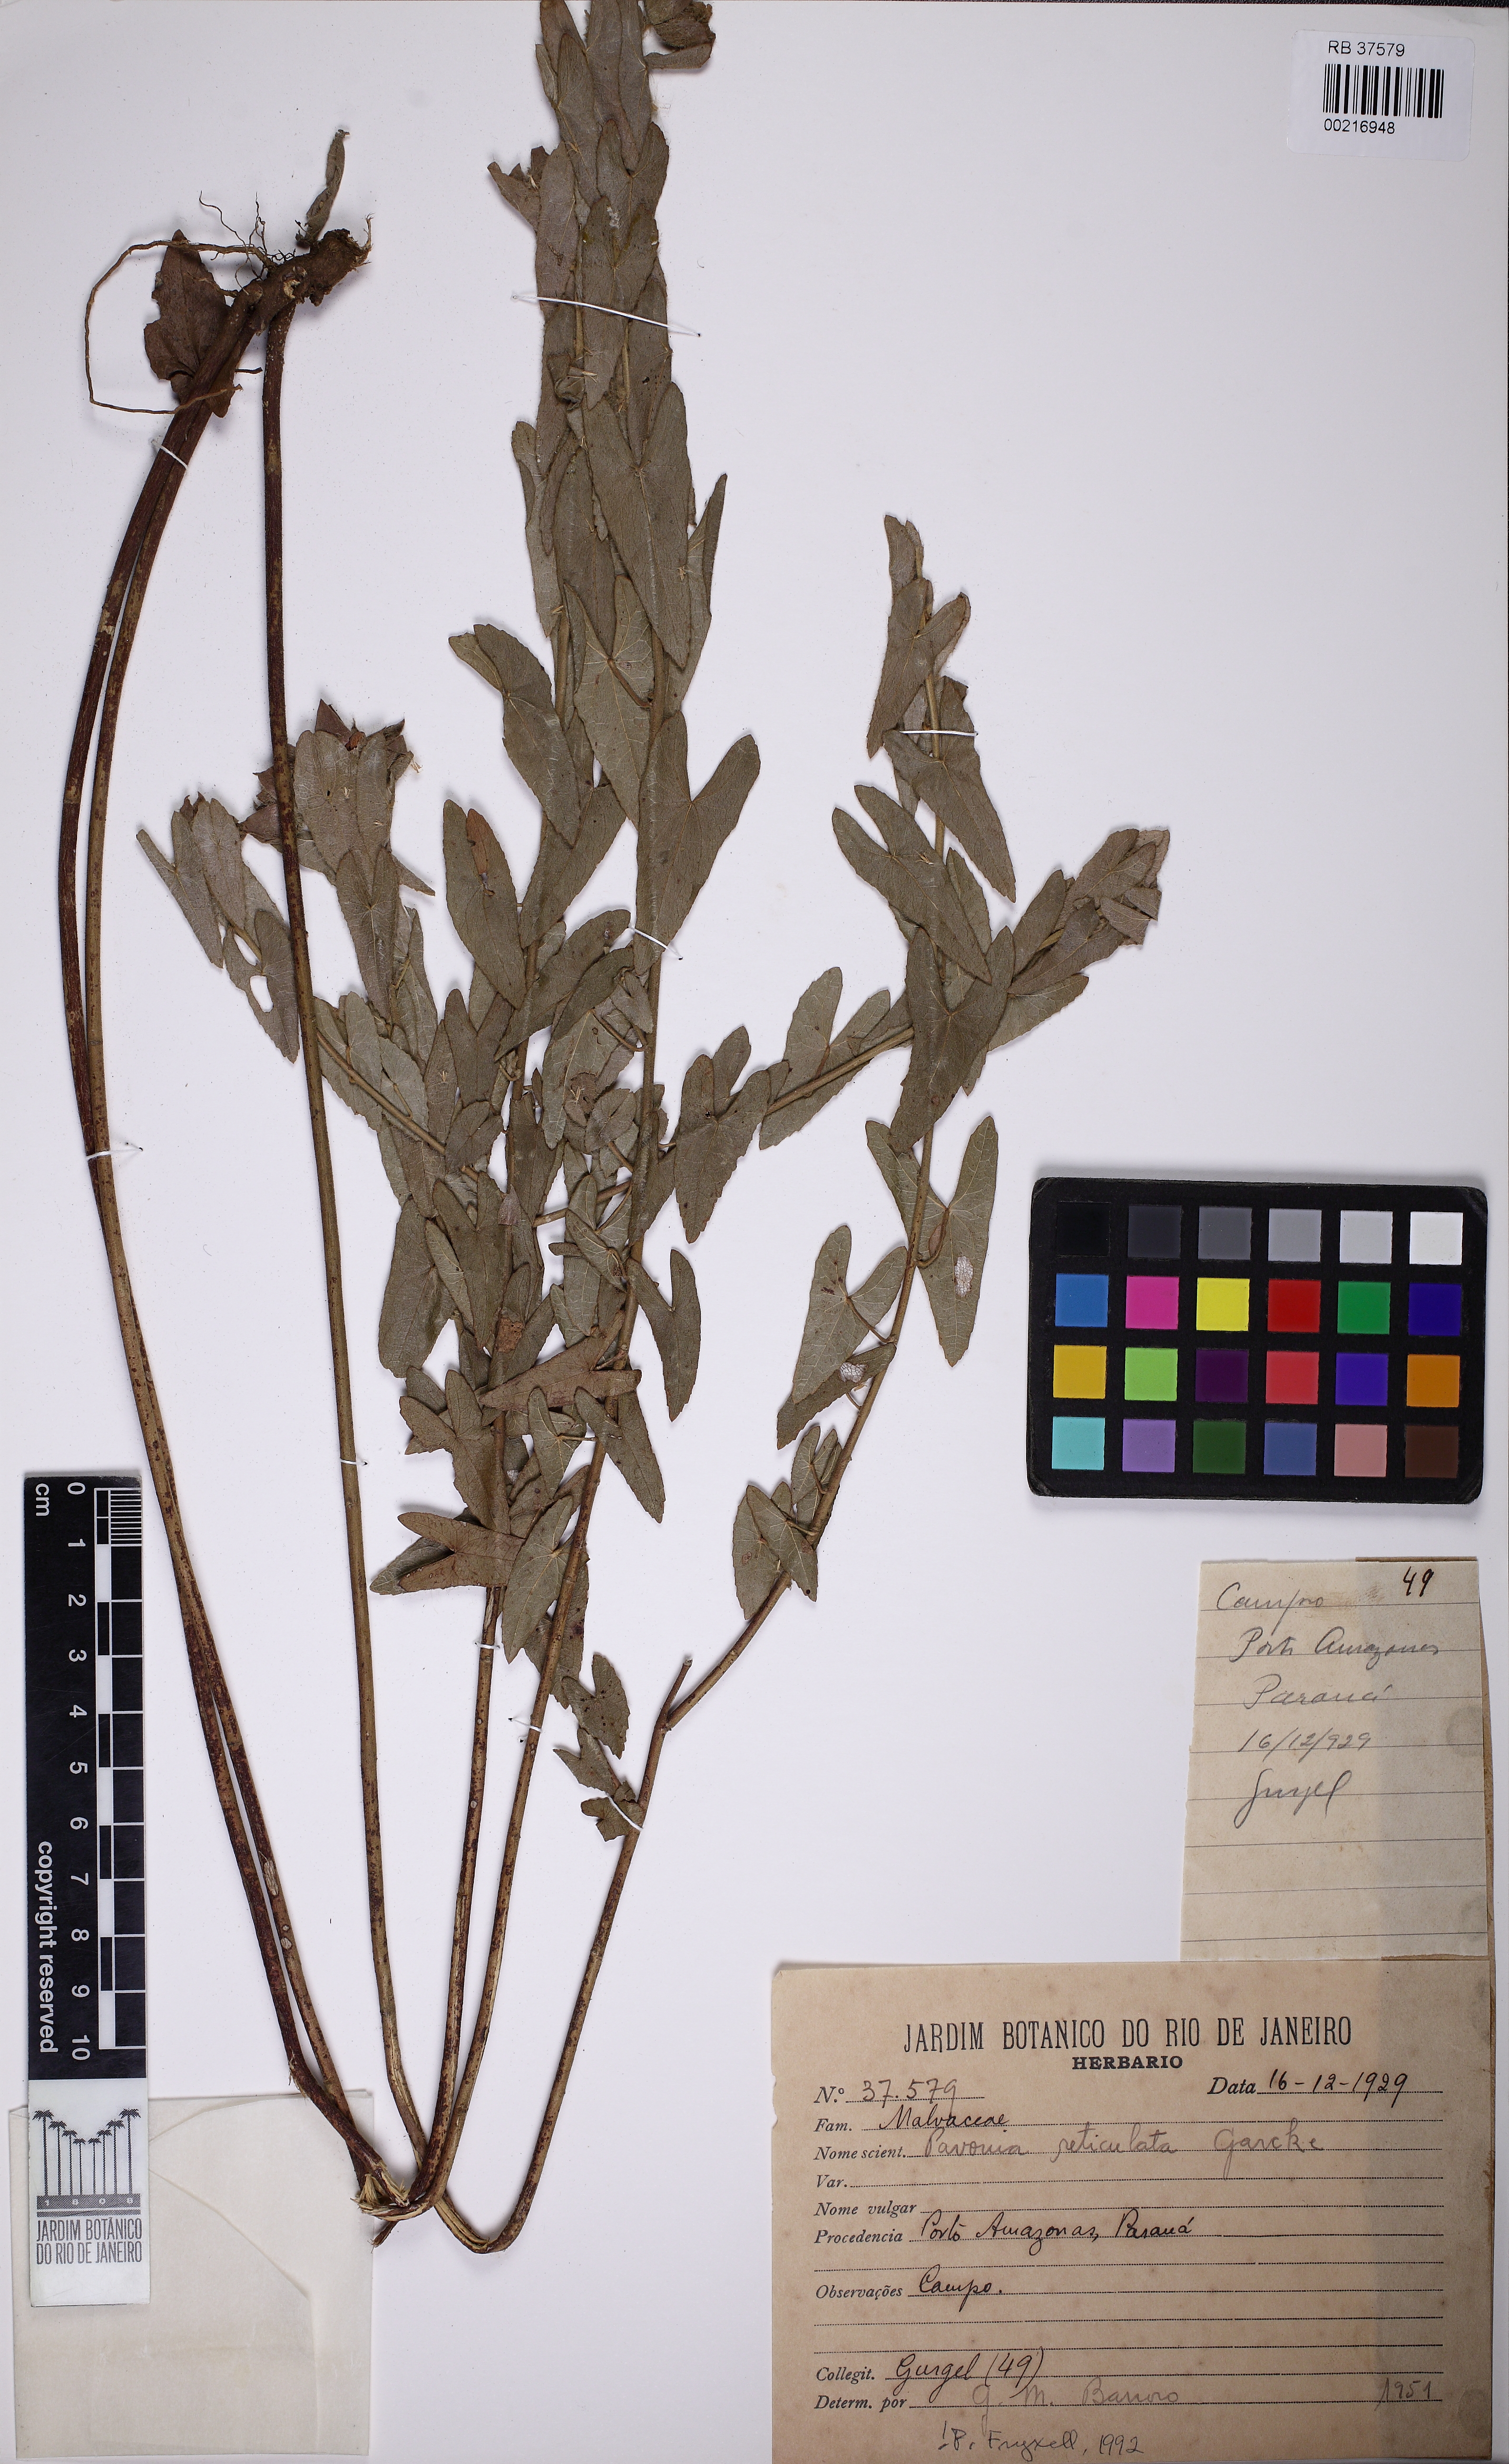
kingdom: Plantae
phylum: Tracheophyta
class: Magnoliopsida
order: Malvales
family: Malvaceae
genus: Pavonia
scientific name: Pavonia reticulata
